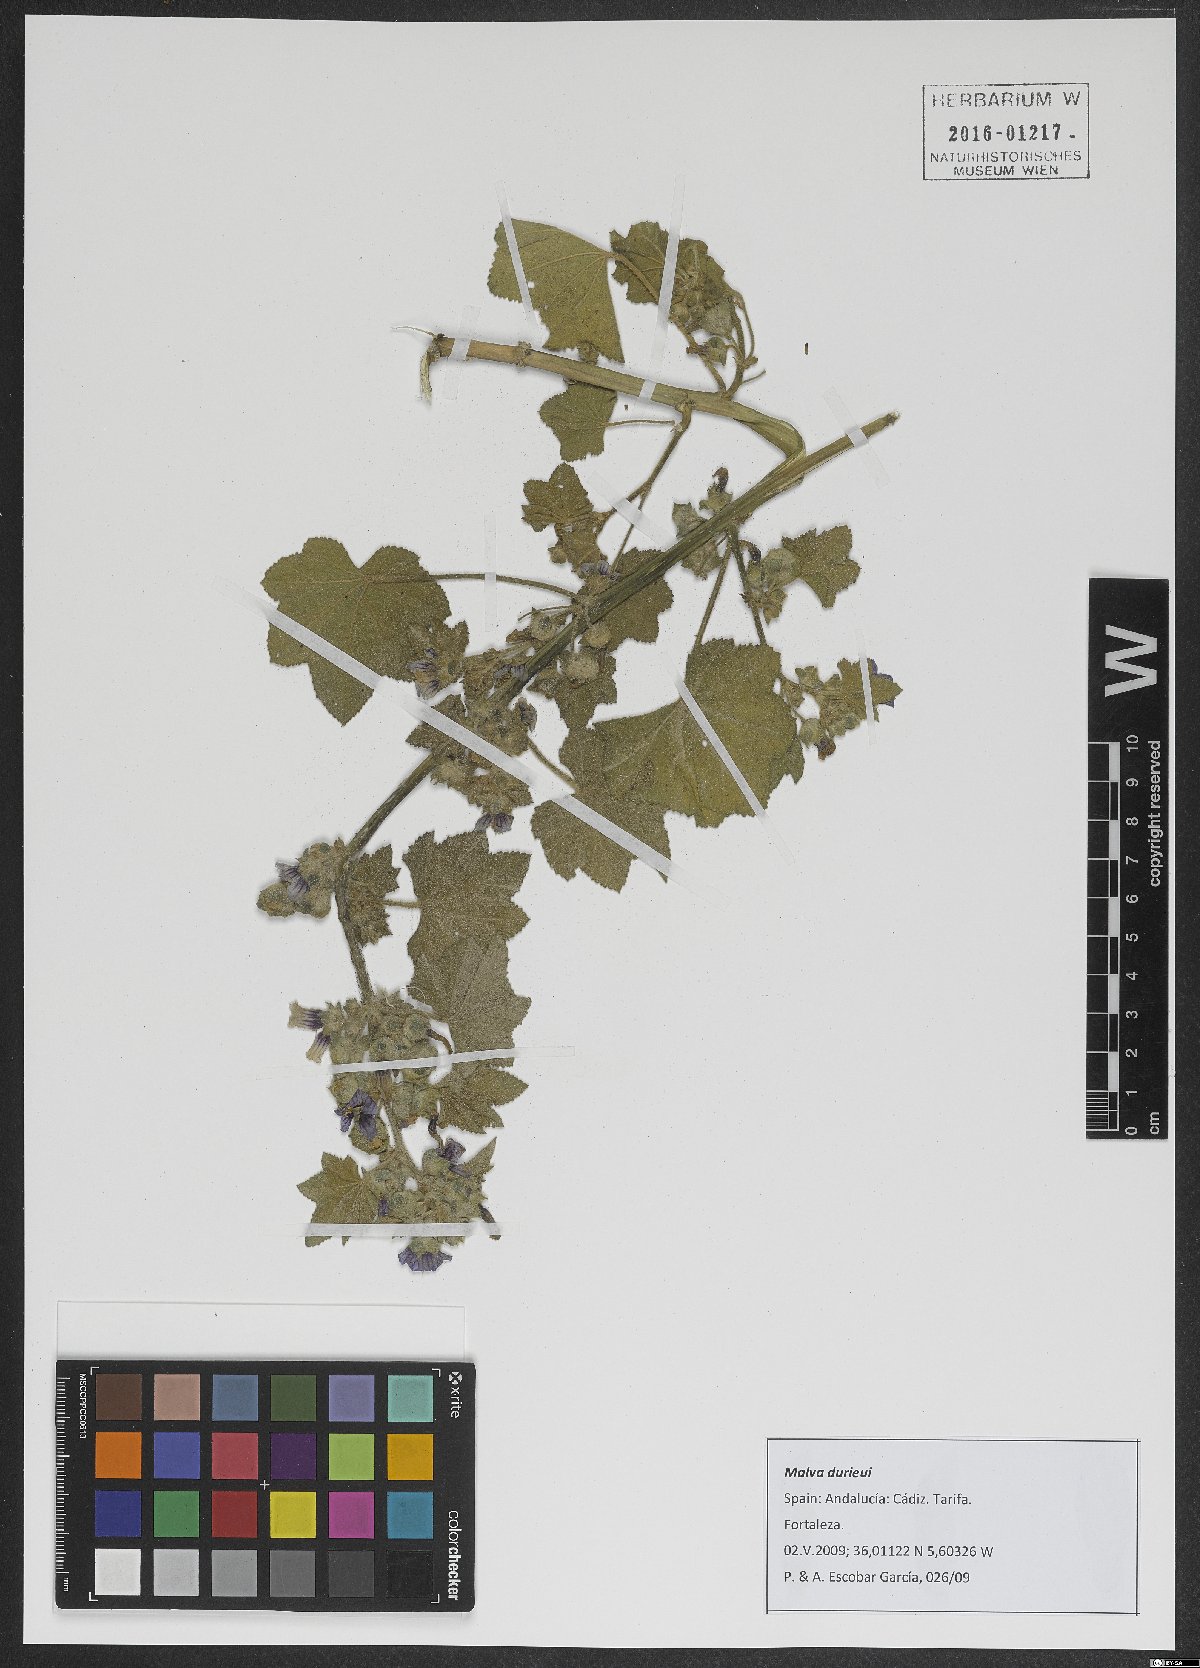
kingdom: Plantae
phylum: Tracheophyta
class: Magnoliopsida
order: Malvales
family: Malvaceae
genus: Malva
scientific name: Malva durieui
